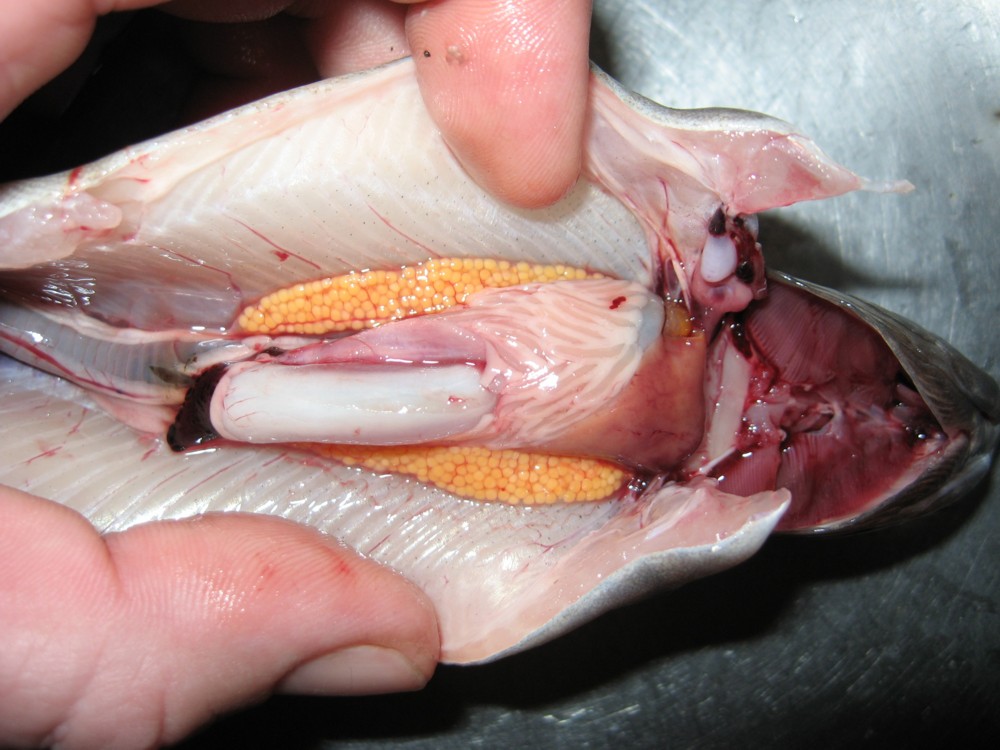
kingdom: Animalia
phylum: Chordata
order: Salmoniformes
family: Salmonidae
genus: Oncorhynchus
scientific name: Oncorhynchus mykiss
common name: Rainbow trout
